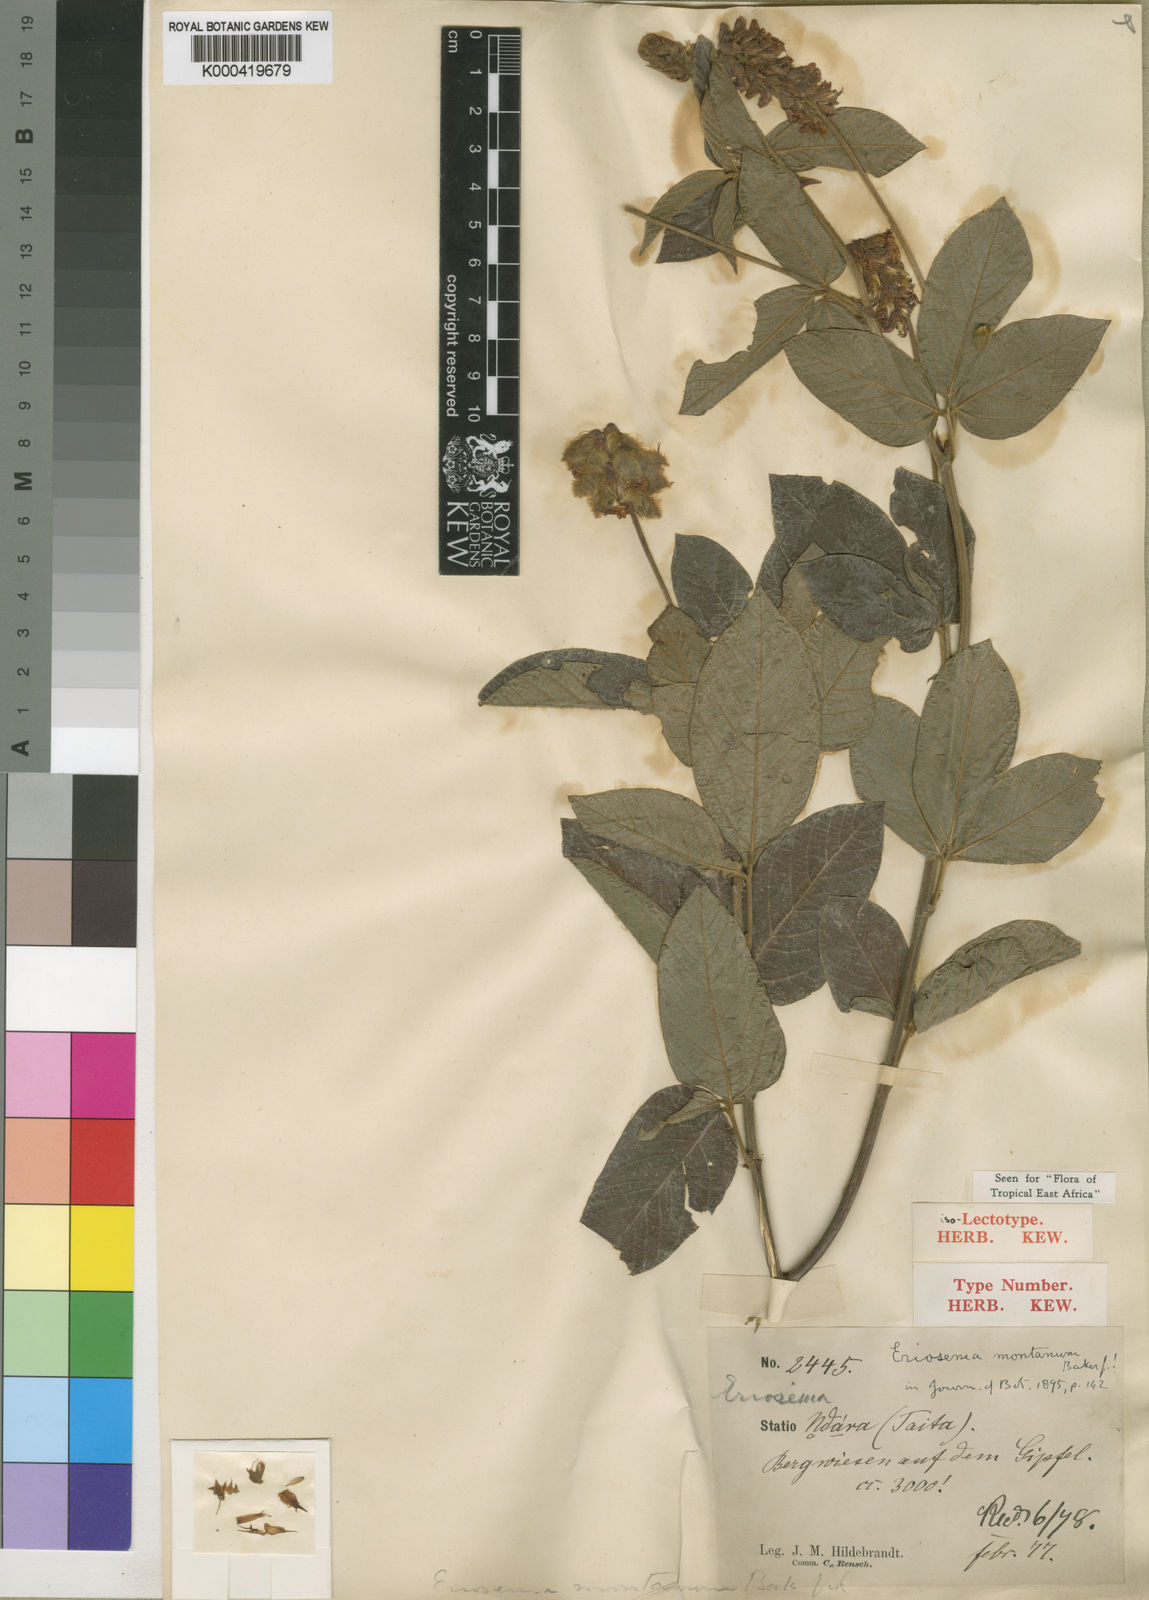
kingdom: Plantae
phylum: Tracheophyta
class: Magnoliopsida
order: Fabales
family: Fabaceae
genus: Eriosema
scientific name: Eriosema montanum
